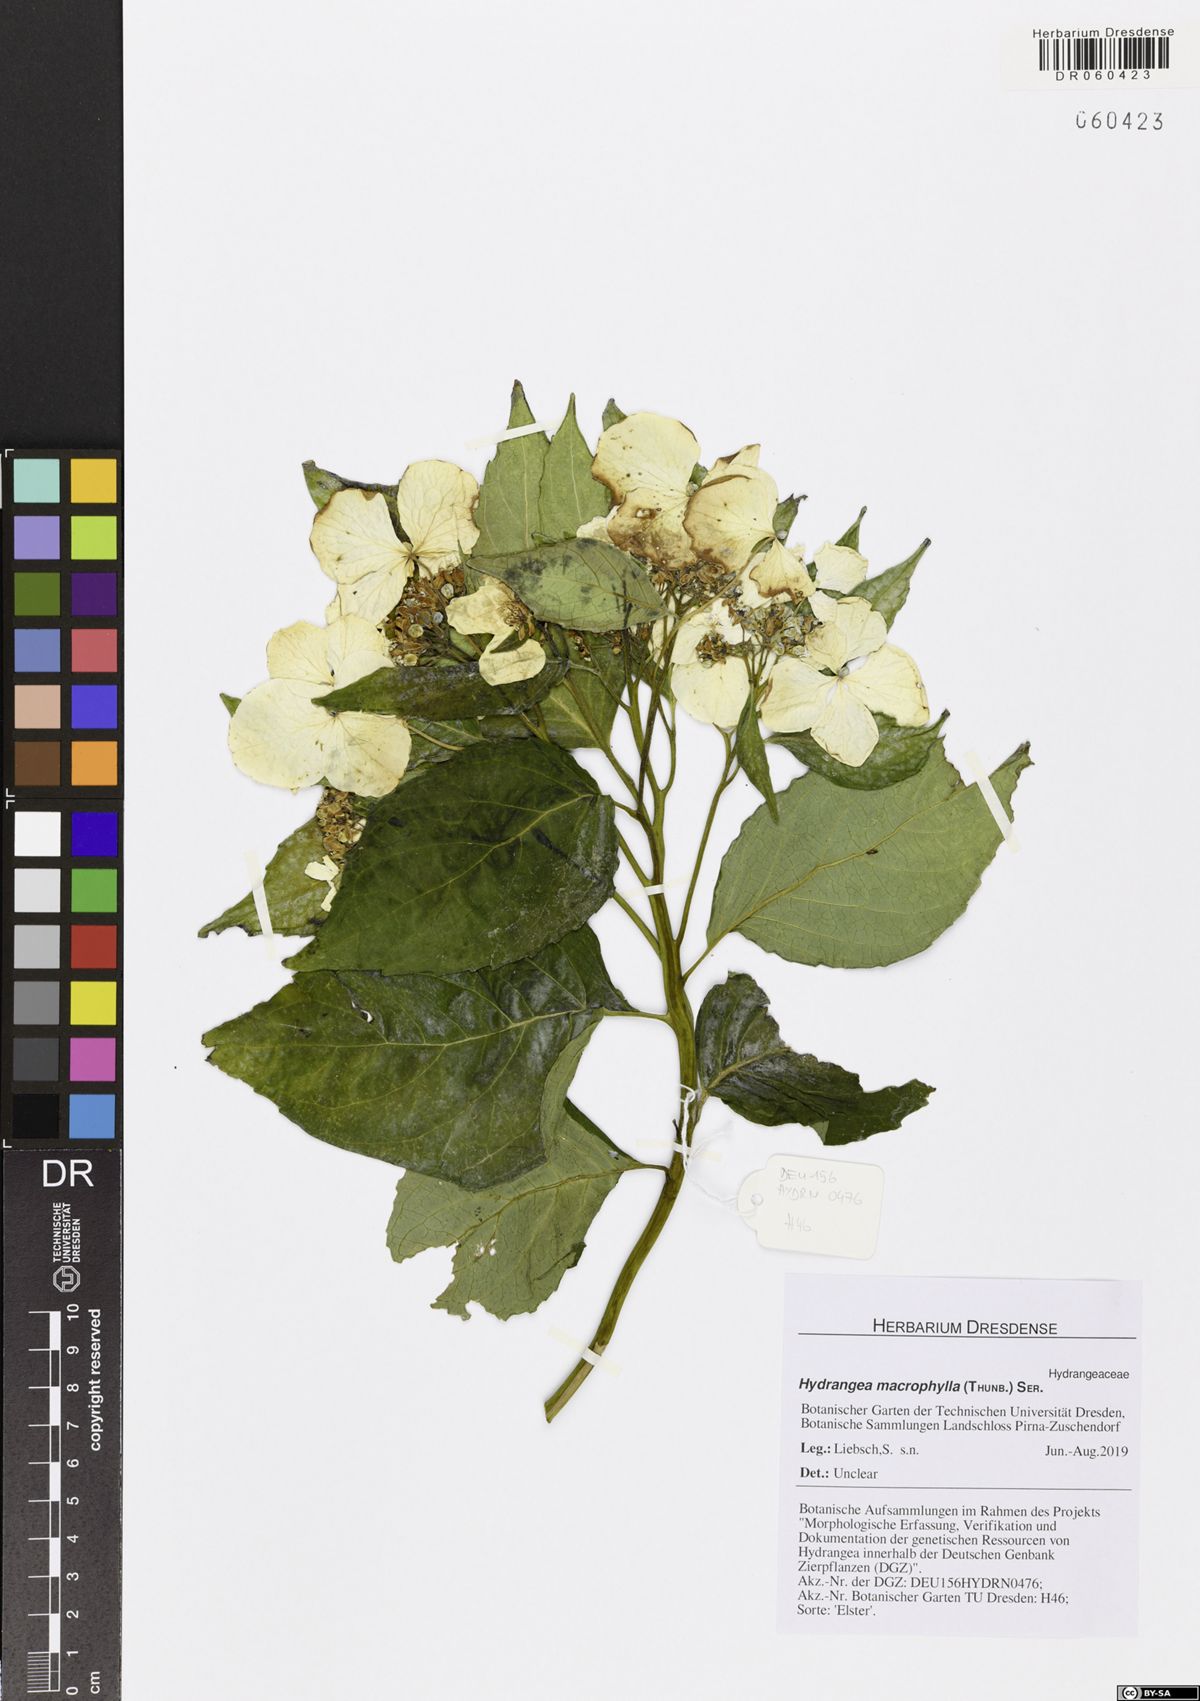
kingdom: Plantae
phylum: Tracheophyta
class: Magnoliopsida
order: Cornales
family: Hydrangeaceae
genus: Hydrangea
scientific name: Hydrangea macrophylla
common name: Hydrangea
